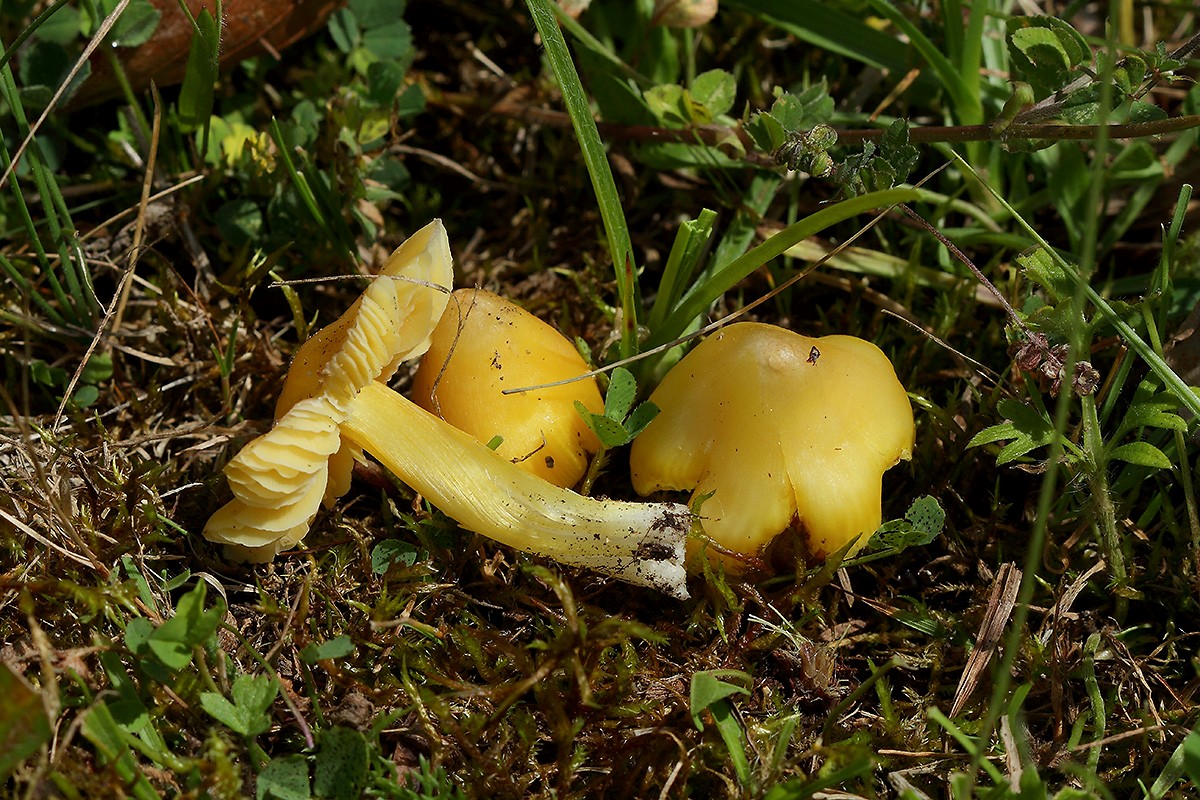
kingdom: Fungi
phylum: Basidiomycota
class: Agaricomycetes
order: Agaricales
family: Hygrophoraceae
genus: Hygrocybe
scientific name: Hygrocybe acutoconica
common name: spidspuklet vokshat
